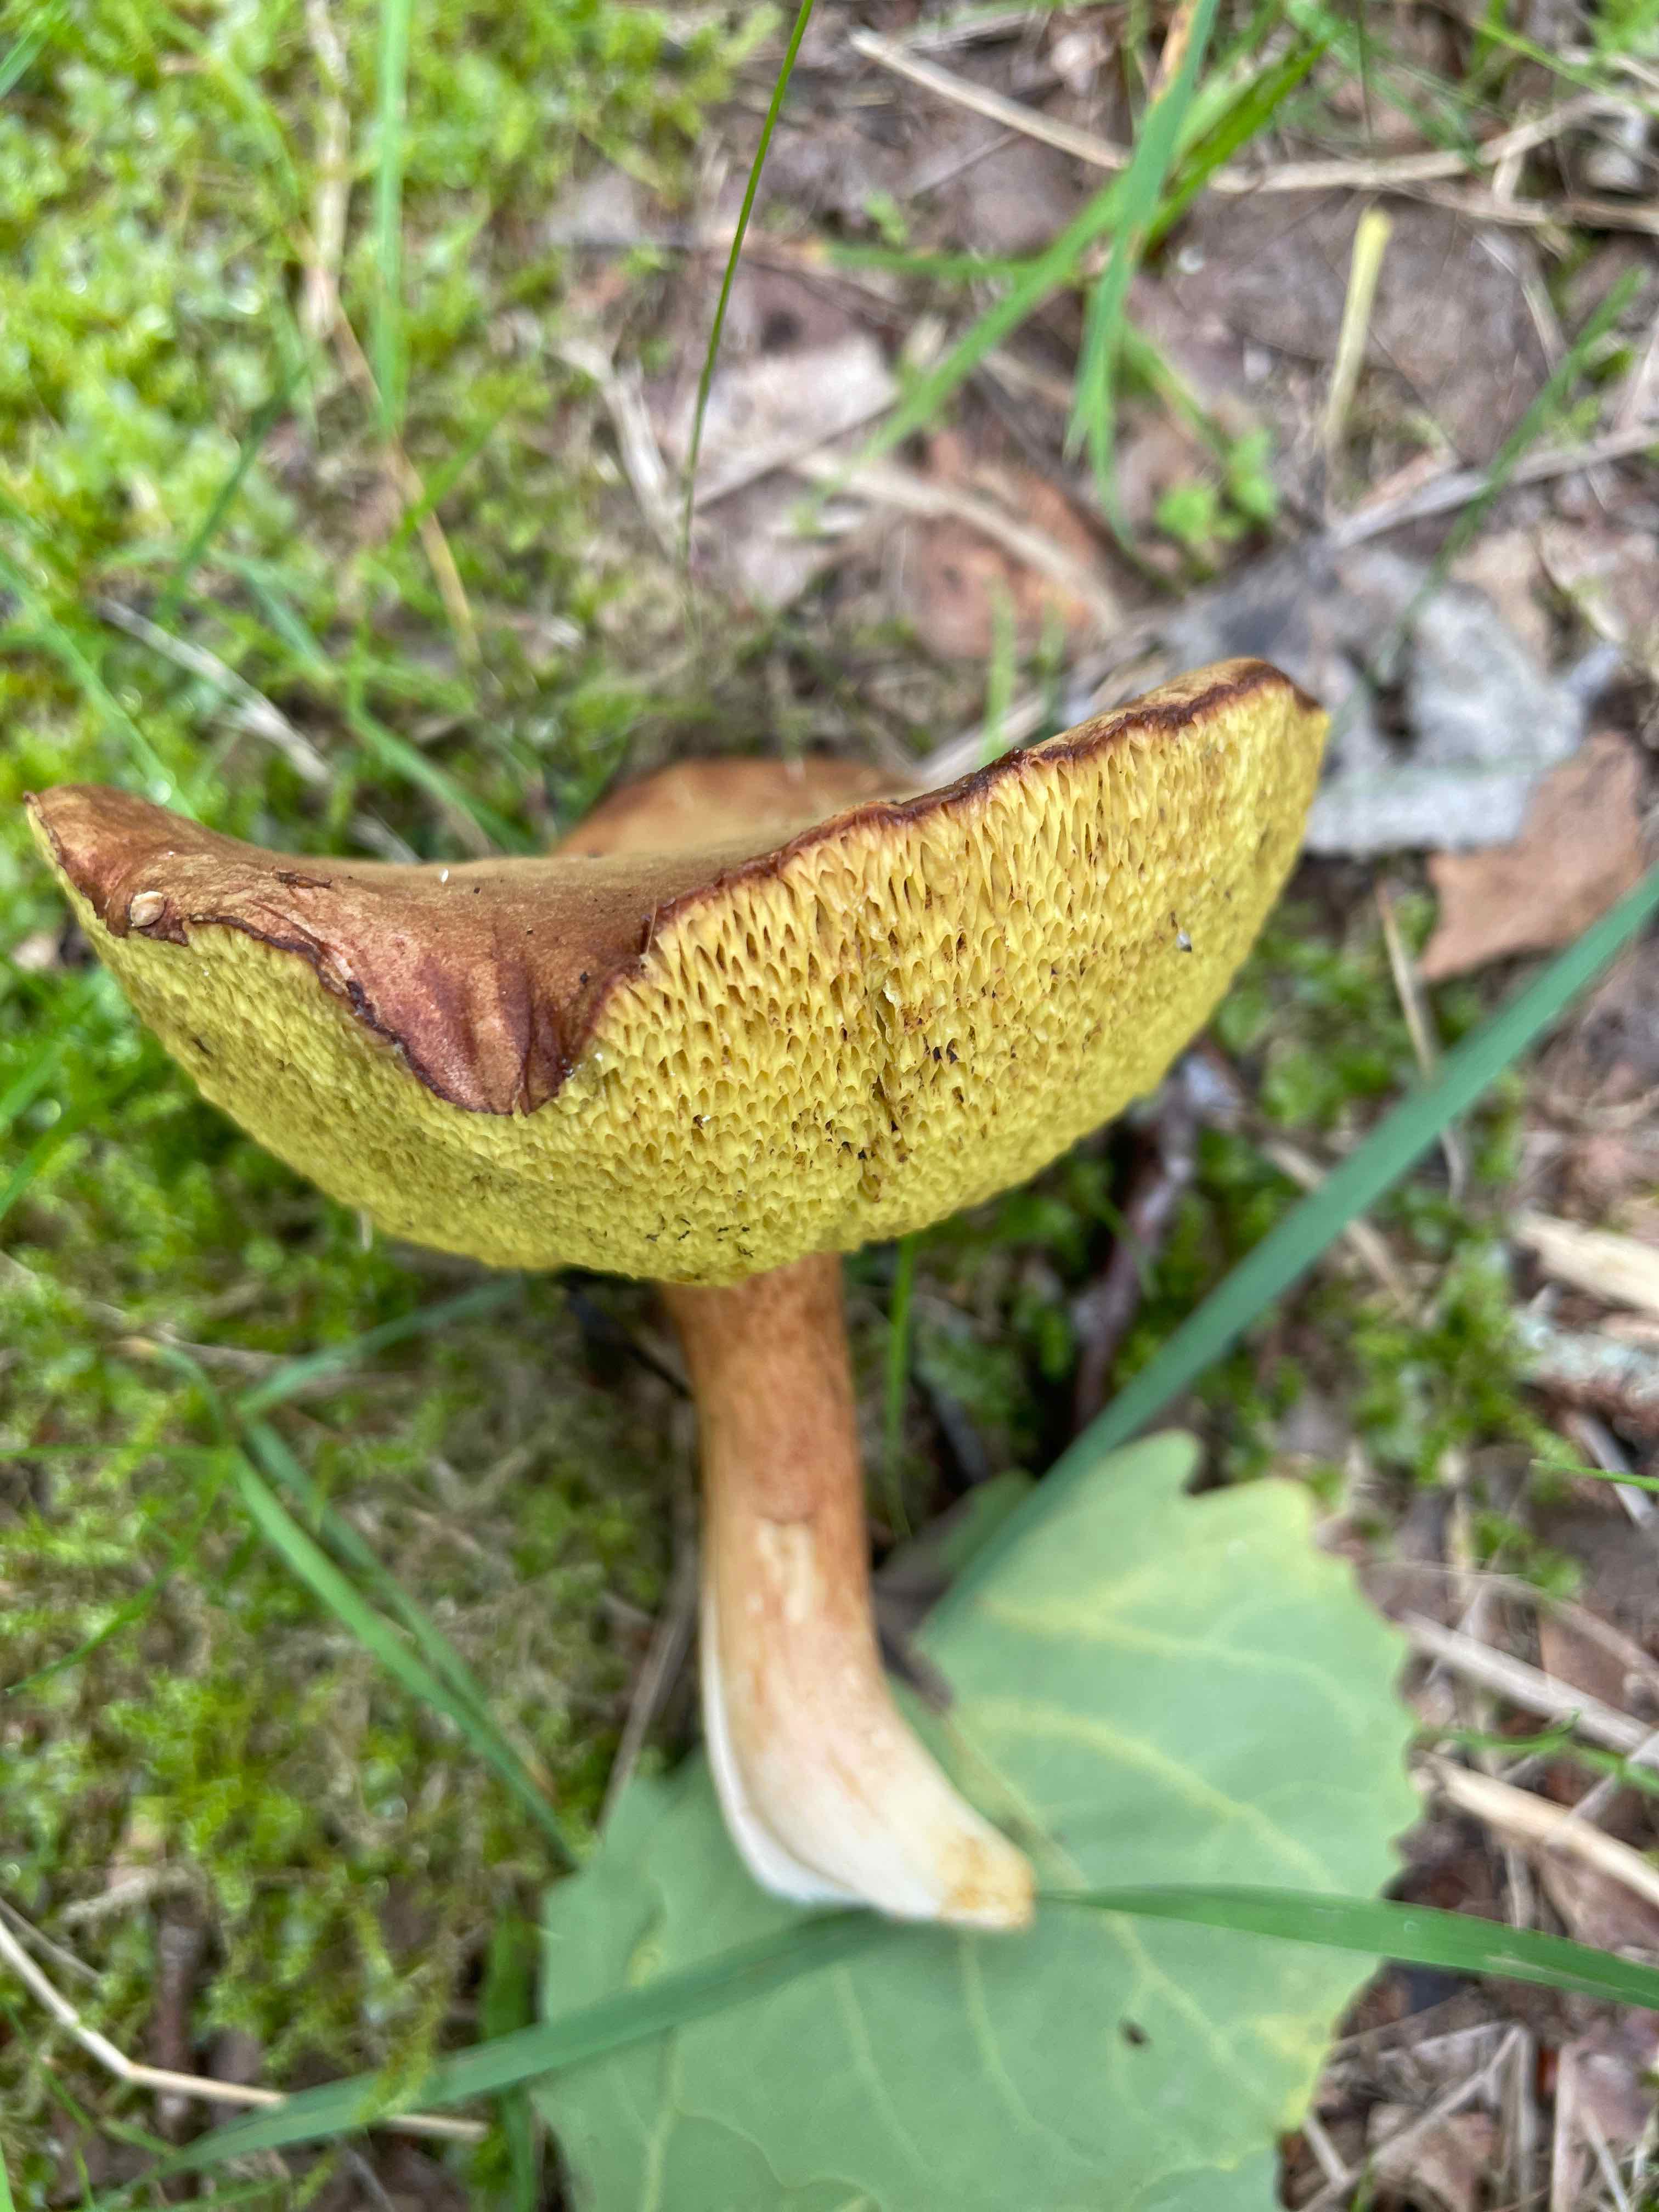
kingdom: Fungi
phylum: Basidiomycota
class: Agaricomycetes
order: Boletales
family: Boletaceae
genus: Xerocomus
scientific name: Xerocomus
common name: filtrørhat
